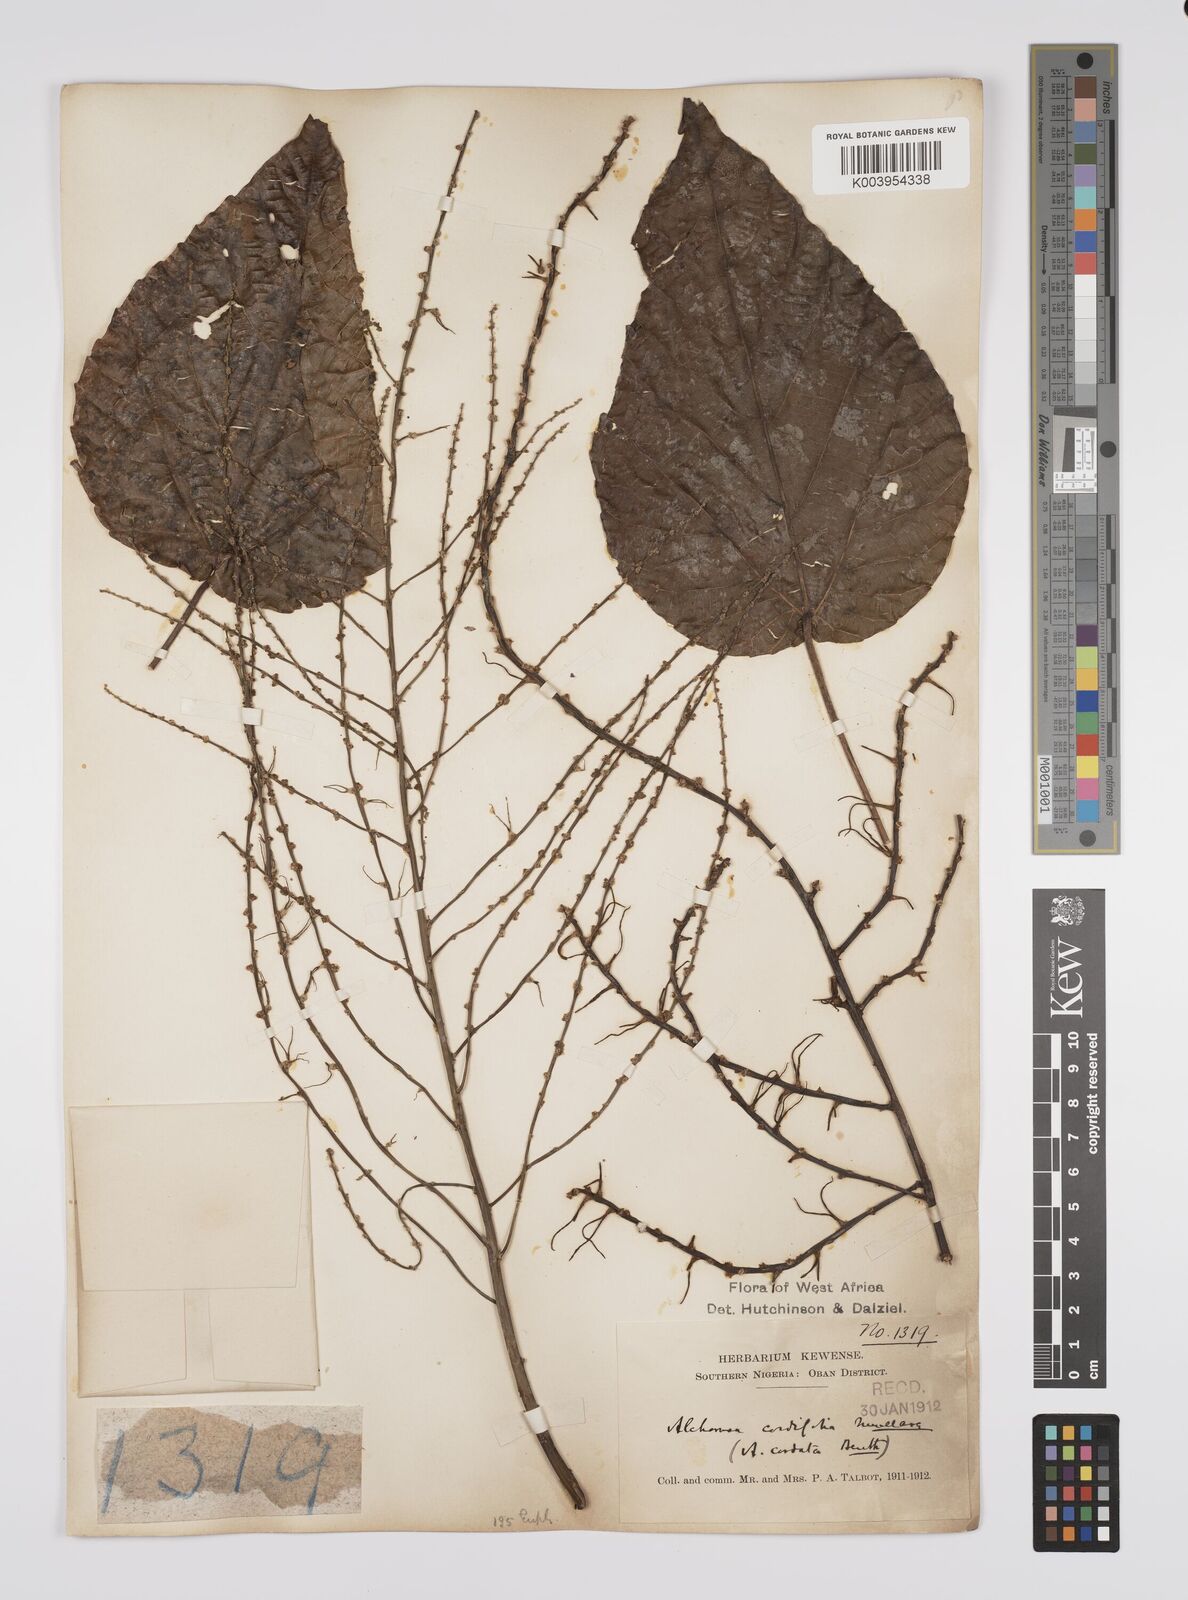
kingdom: Plantae
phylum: Tracheophyta
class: Magnoliopsida
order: Malpighiales
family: Euphorbiaceae
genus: Alchornea
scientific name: Alchornea cordifolia
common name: Christmasbush
